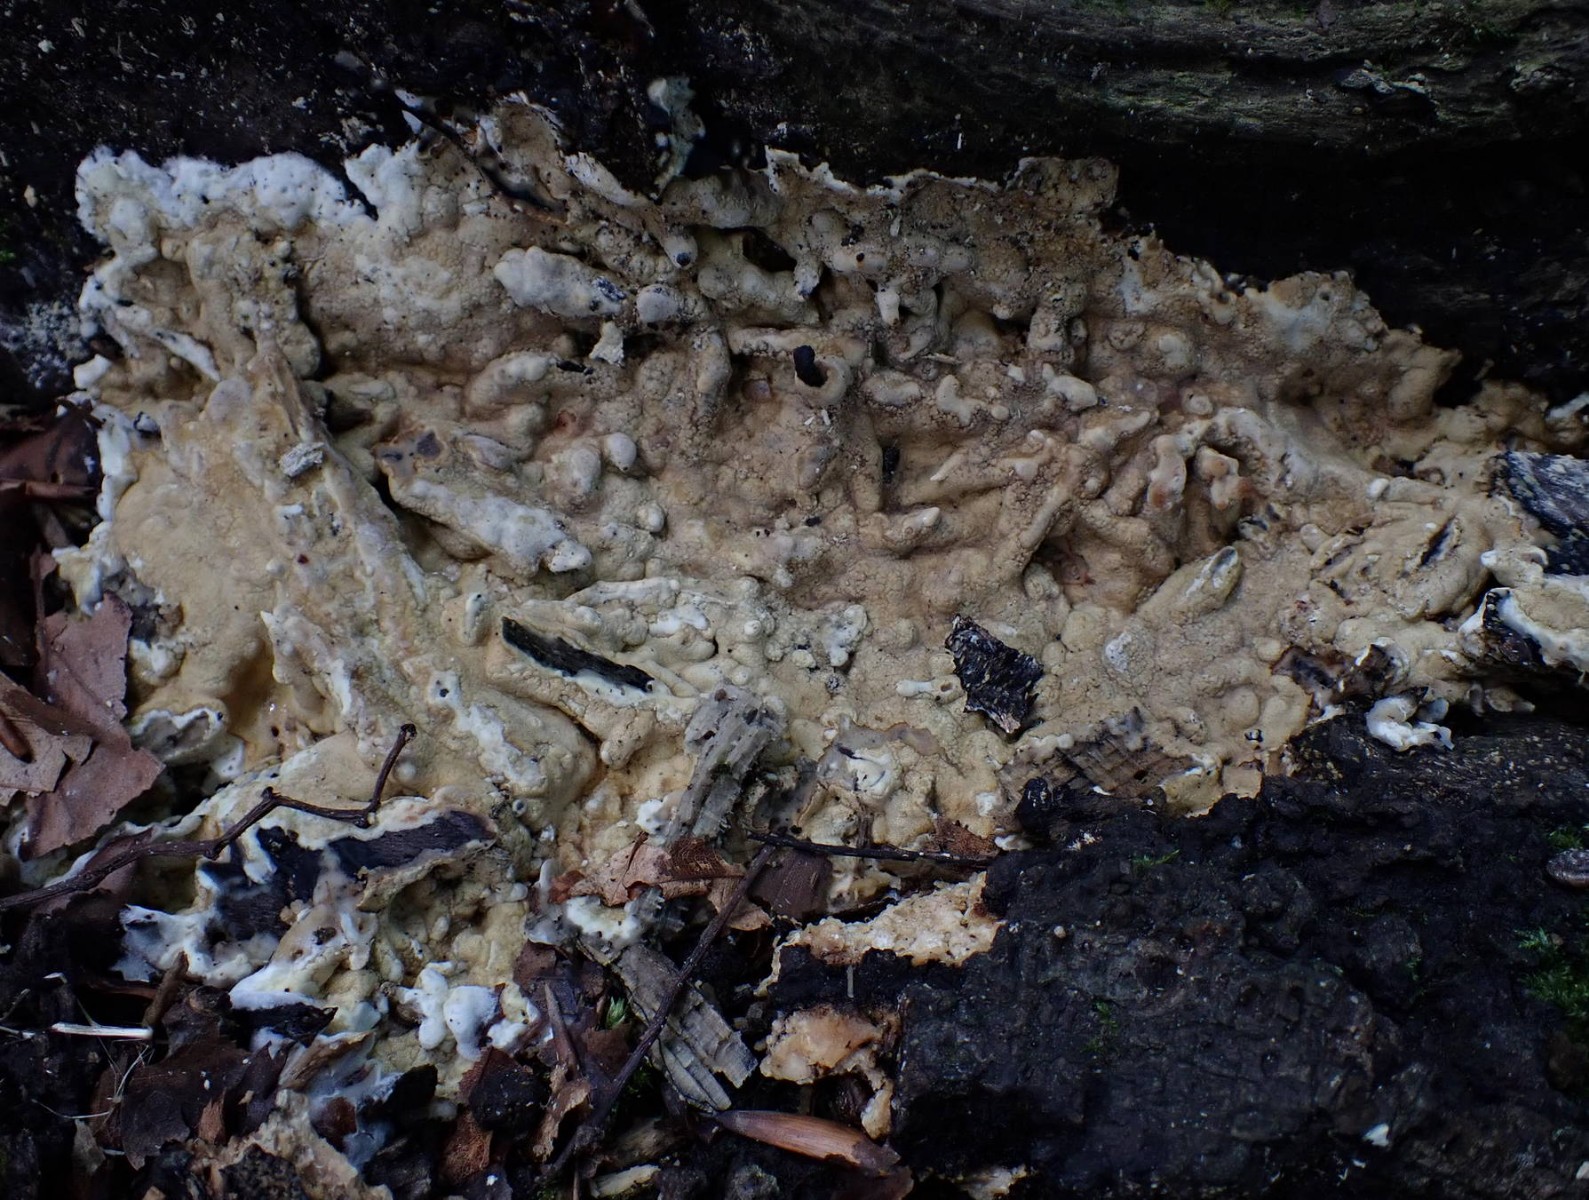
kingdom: Fungi
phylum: Ascomycota
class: Sordariomycetes
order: Hypocreales
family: Hypocreaceae
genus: Trichoderma
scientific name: Trichoderma citrinum
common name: udbredt kødkerne
